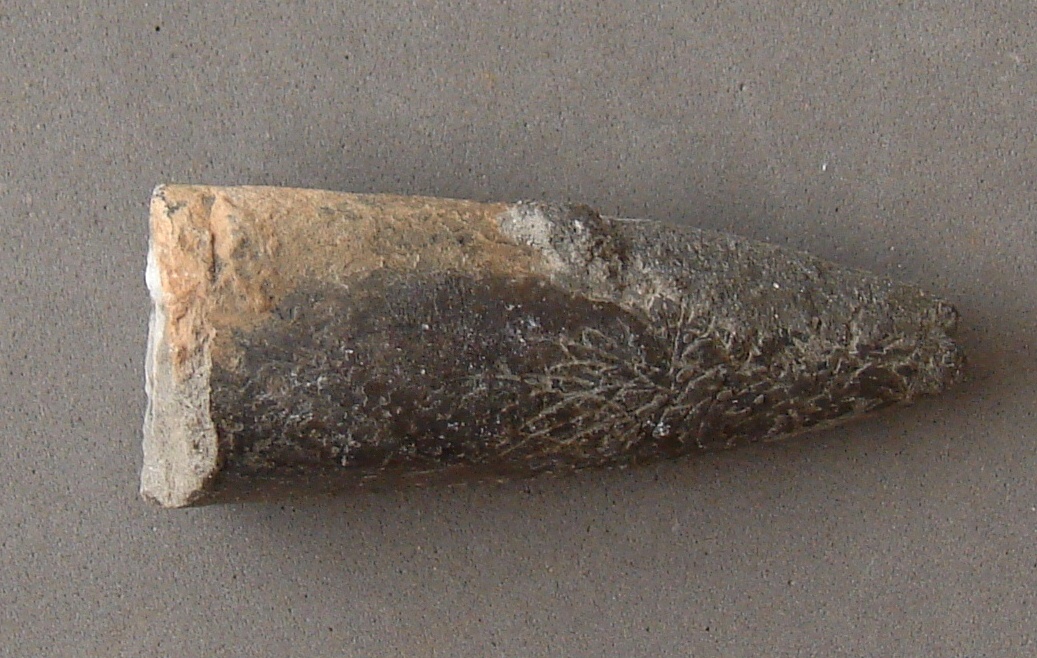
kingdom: Animalia
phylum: Mollusca
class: Cephalopoda
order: Belemnitida
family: Megateuthididae
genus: Acrocoelites
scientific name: Acrocoelites conoideus
